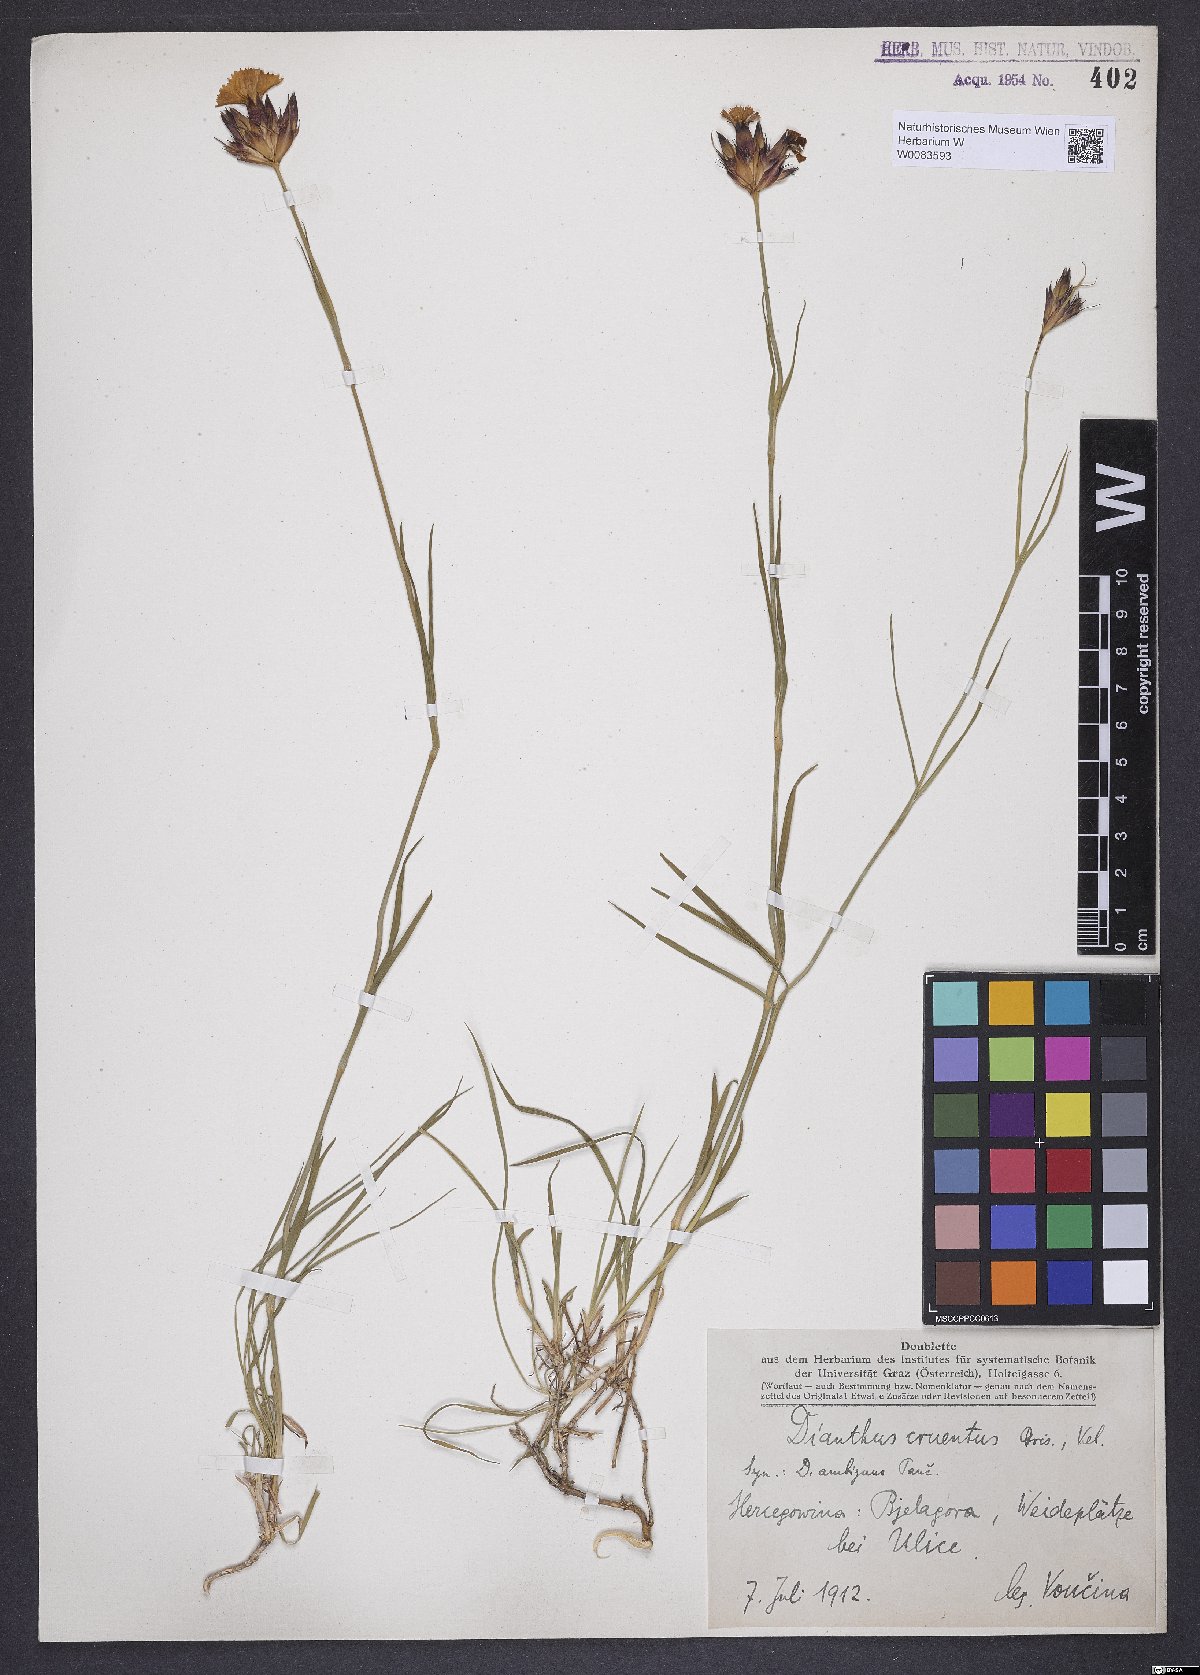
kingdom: Plantae
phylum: Tracheophyta
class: Magnoliopsida
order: Caryophyllales
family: Caryophyllaceae
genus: Dianthus
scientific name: Dianthus cruentus
